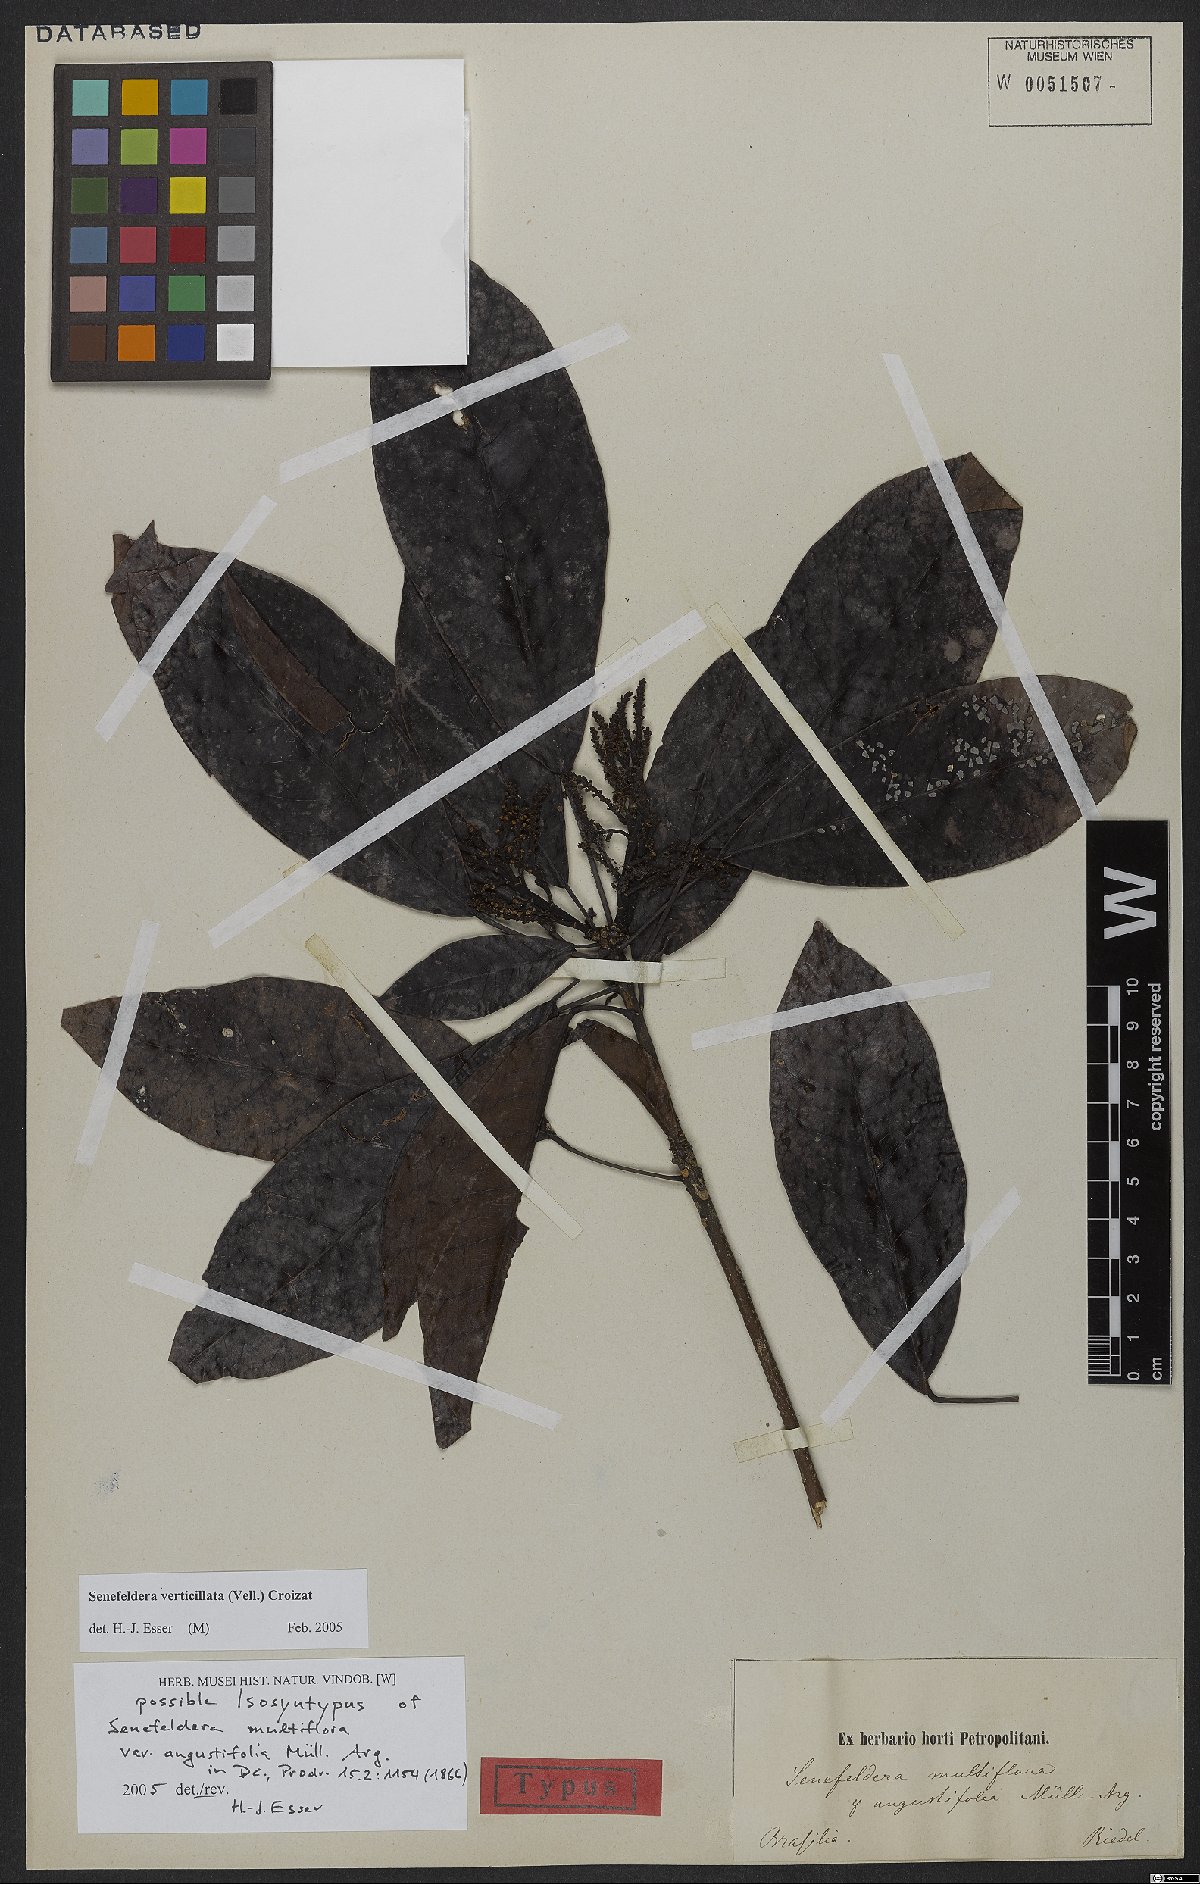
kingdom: Plantae
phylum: Tracheophyta
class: Magnoliopsida
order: Malpighiales
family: Euphorbiaceae
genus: Senefeldera
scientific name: Senefeldera verticillata
